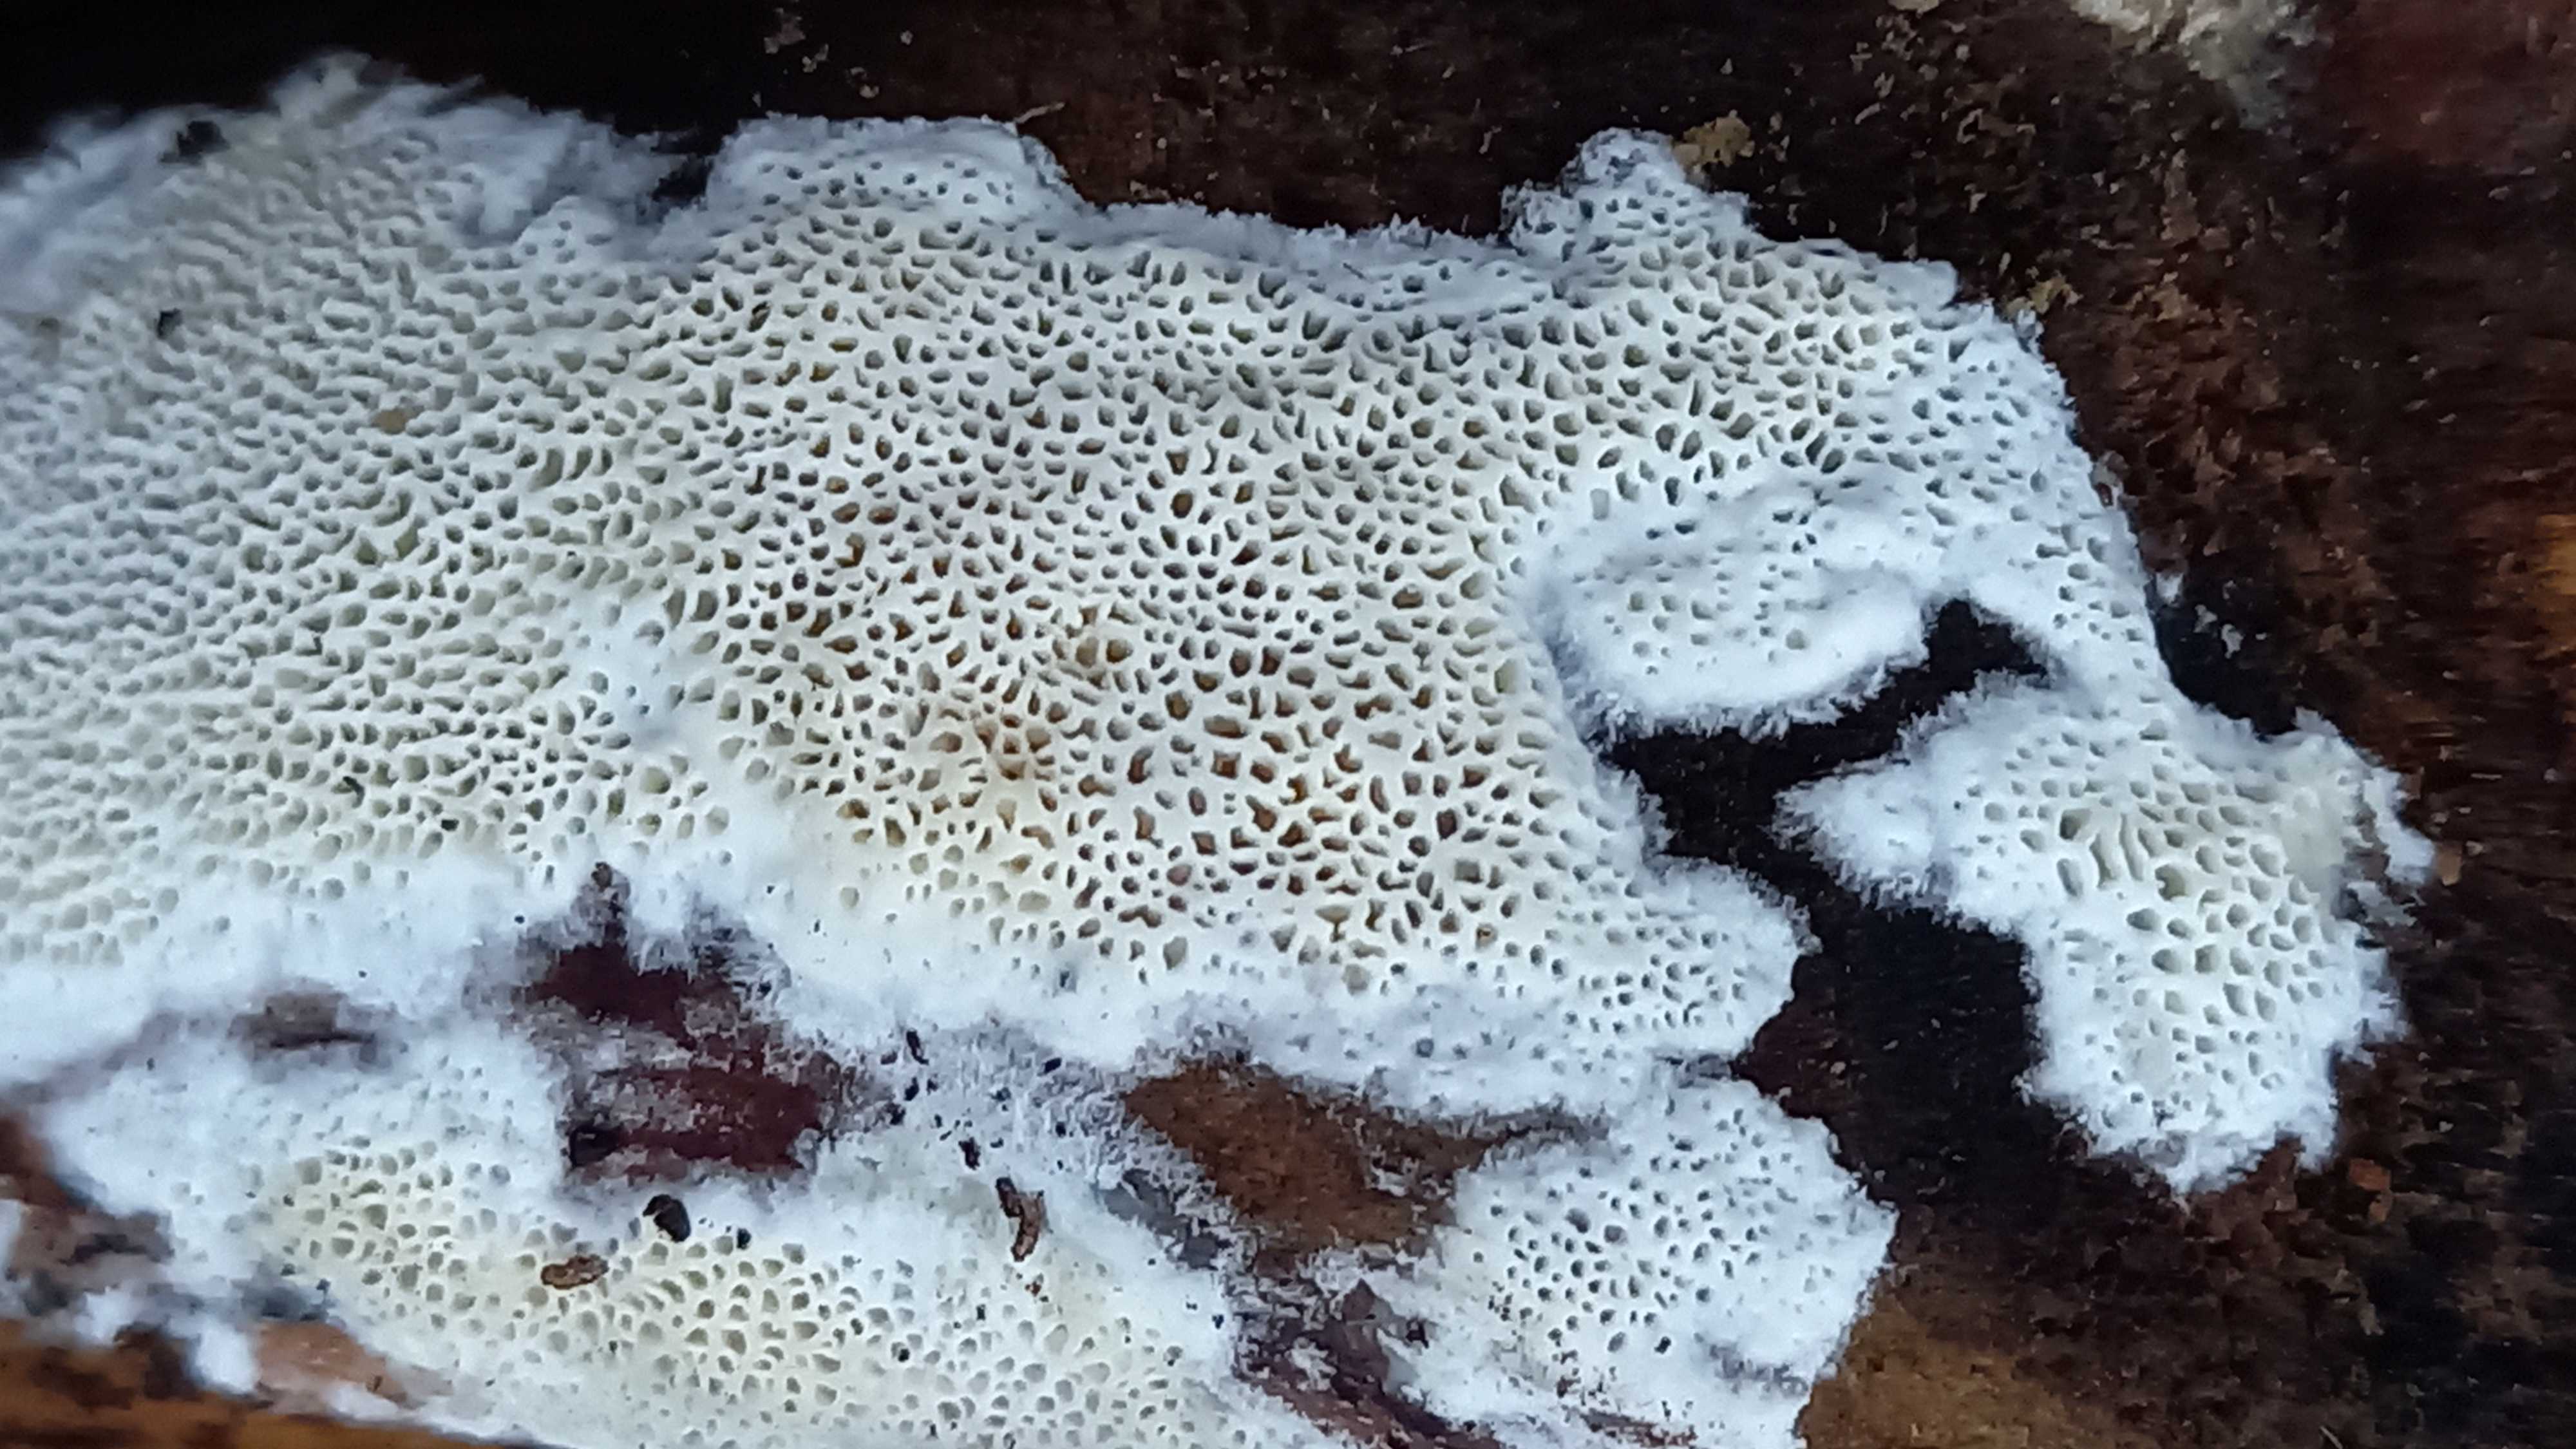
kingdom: Fungi
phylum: Basidiomycota
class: Agaricomycetes
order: Polyporales
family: Cerrenaceae
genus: Raduliporus
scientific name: Raduliporus aneirinus
